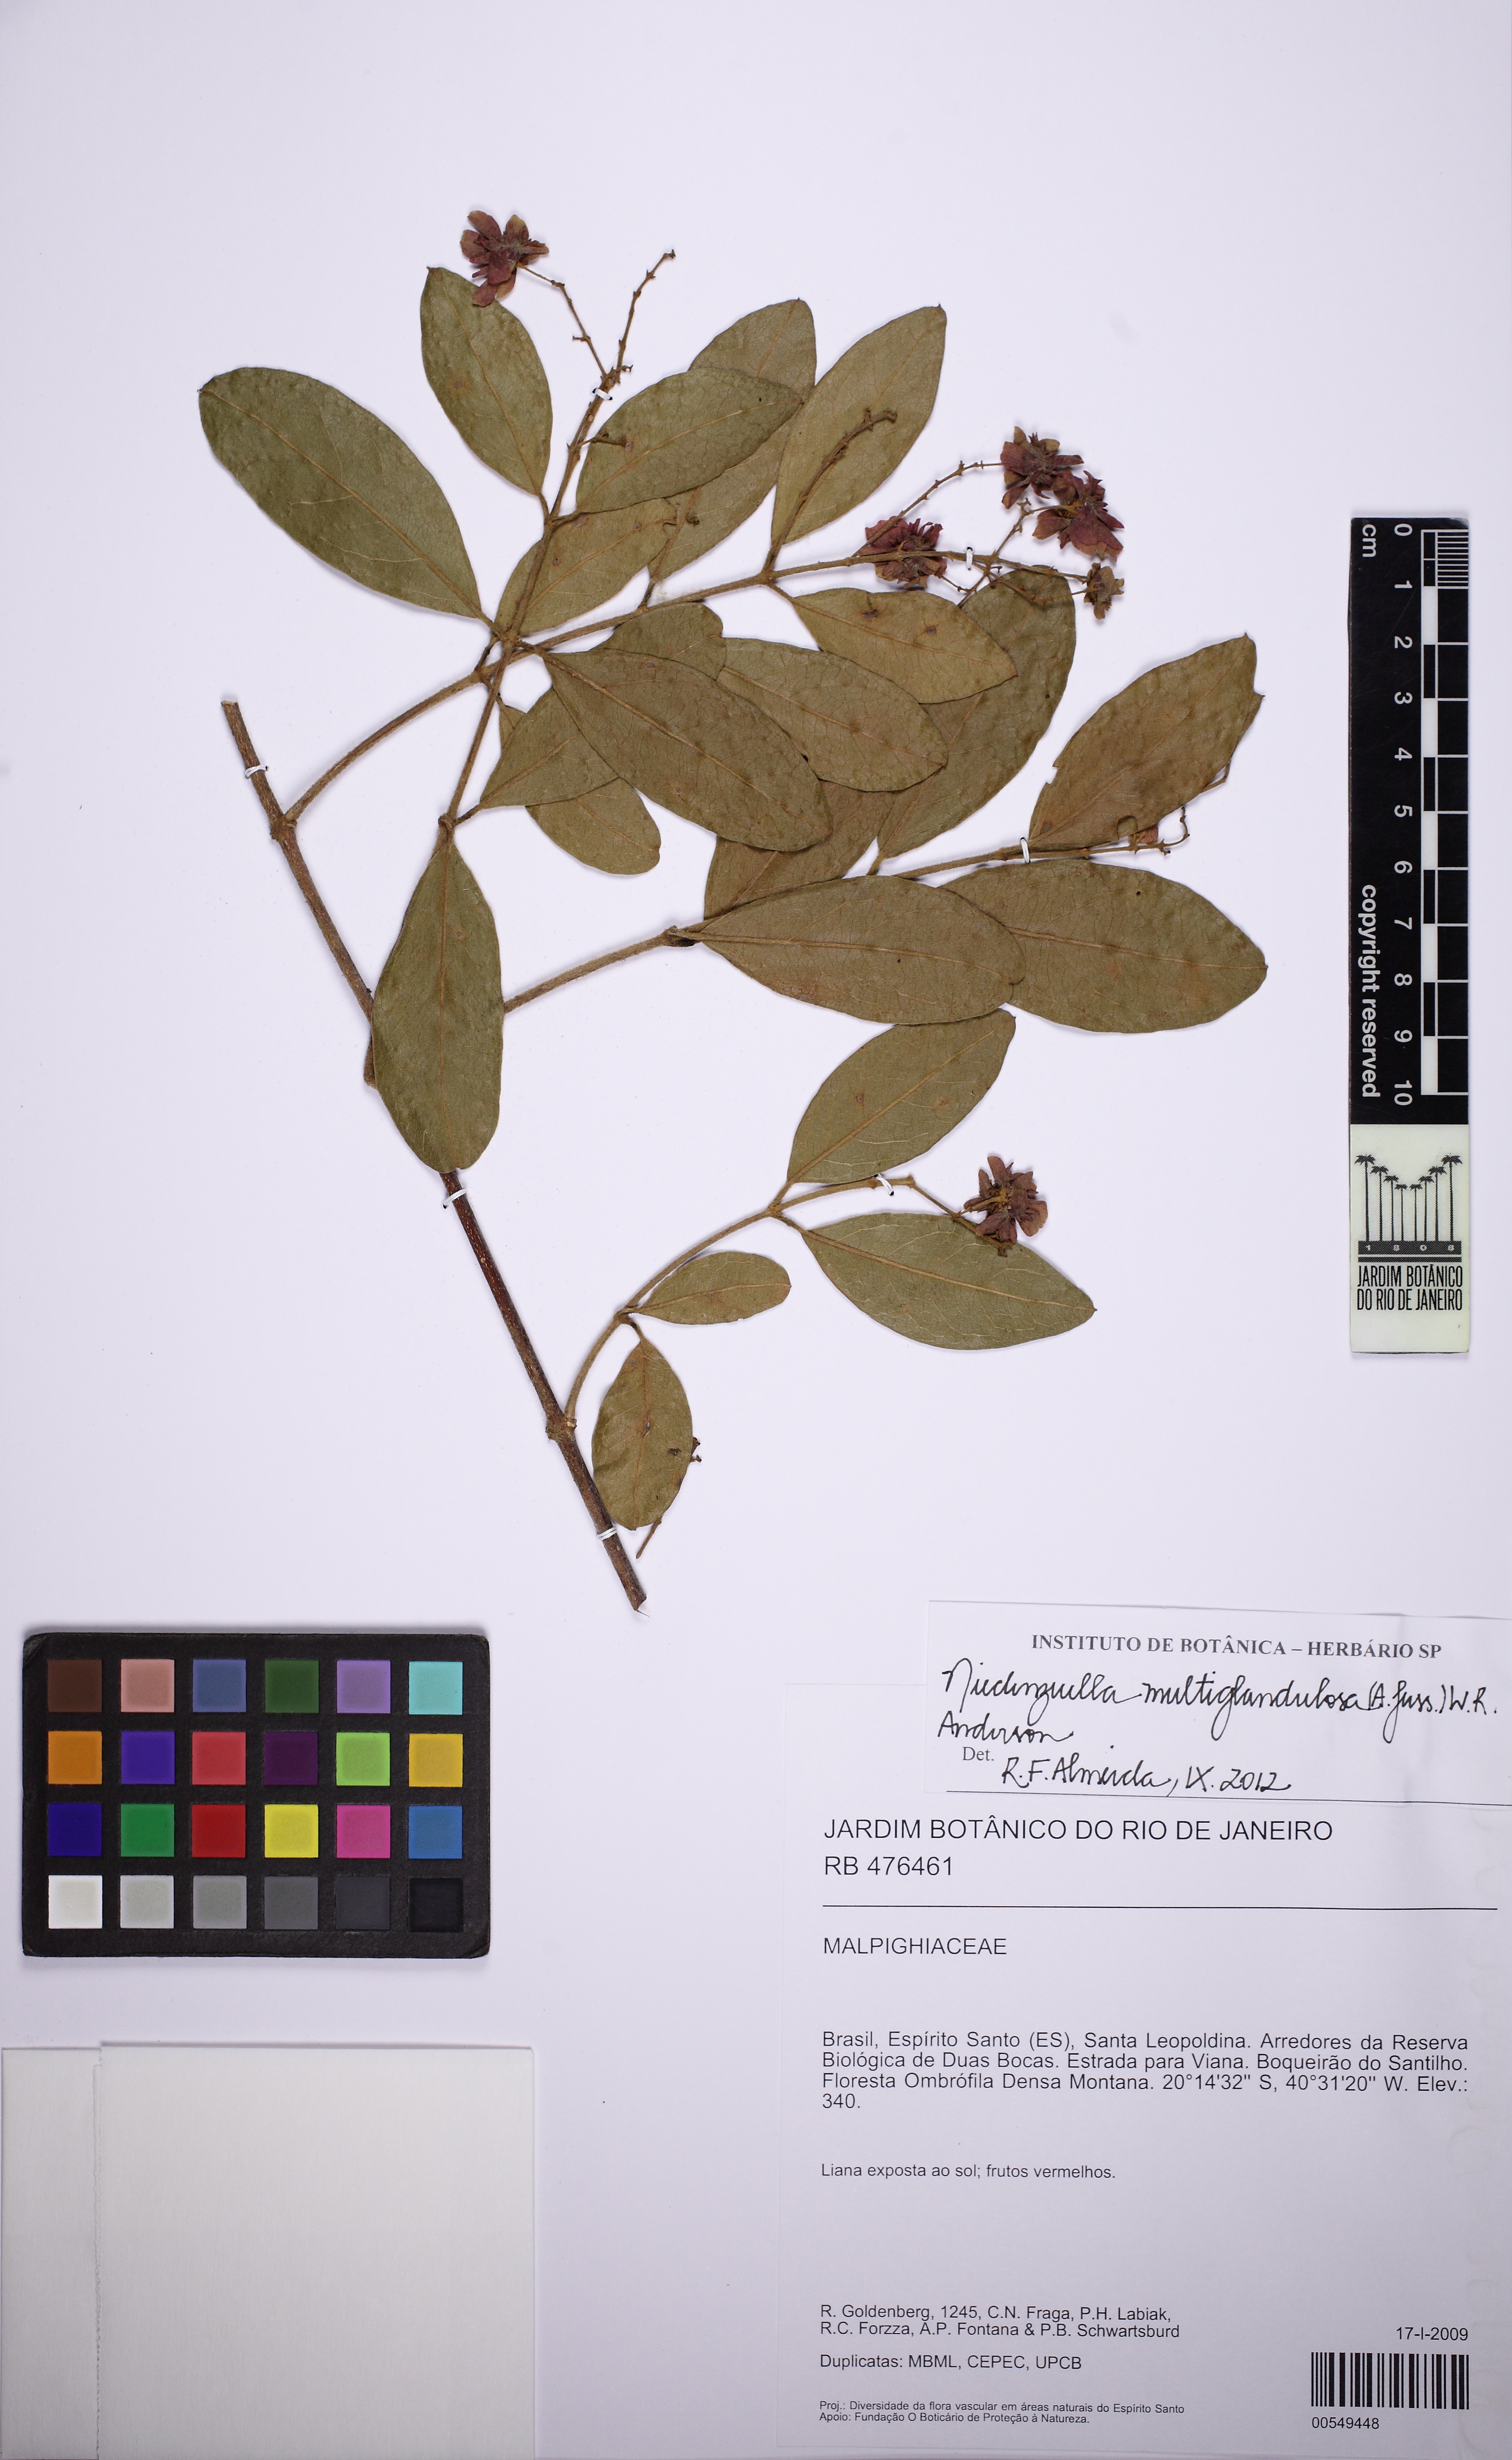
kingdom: Plantae
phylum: Tracheophyta
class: Magnoliopsida
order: Malpighiales
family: Malpighiaceae
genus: Niedenzuella
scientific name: Niedenzuella multiglandulosa
